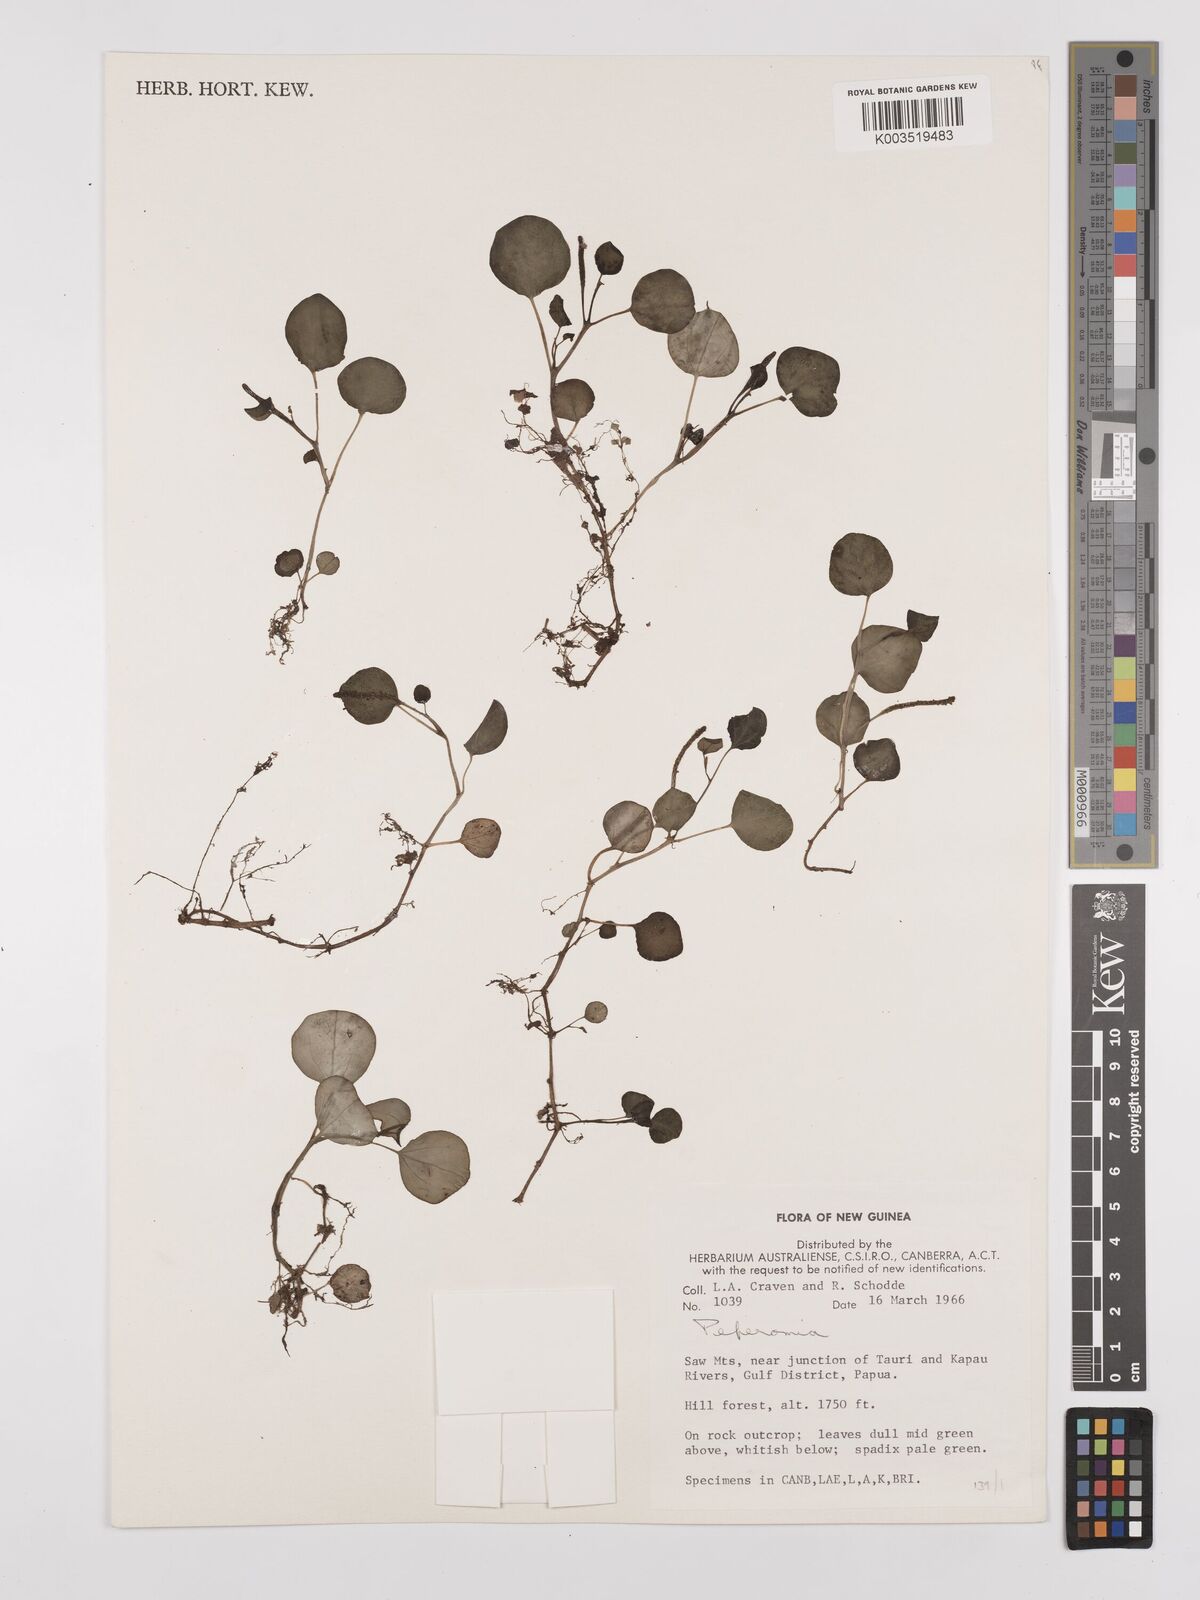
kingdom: Plantae
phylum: Tracheophyta
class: Magnoliopsida
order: Piperales
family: Piperaceae
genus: Peperomia
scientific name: Peperomia
